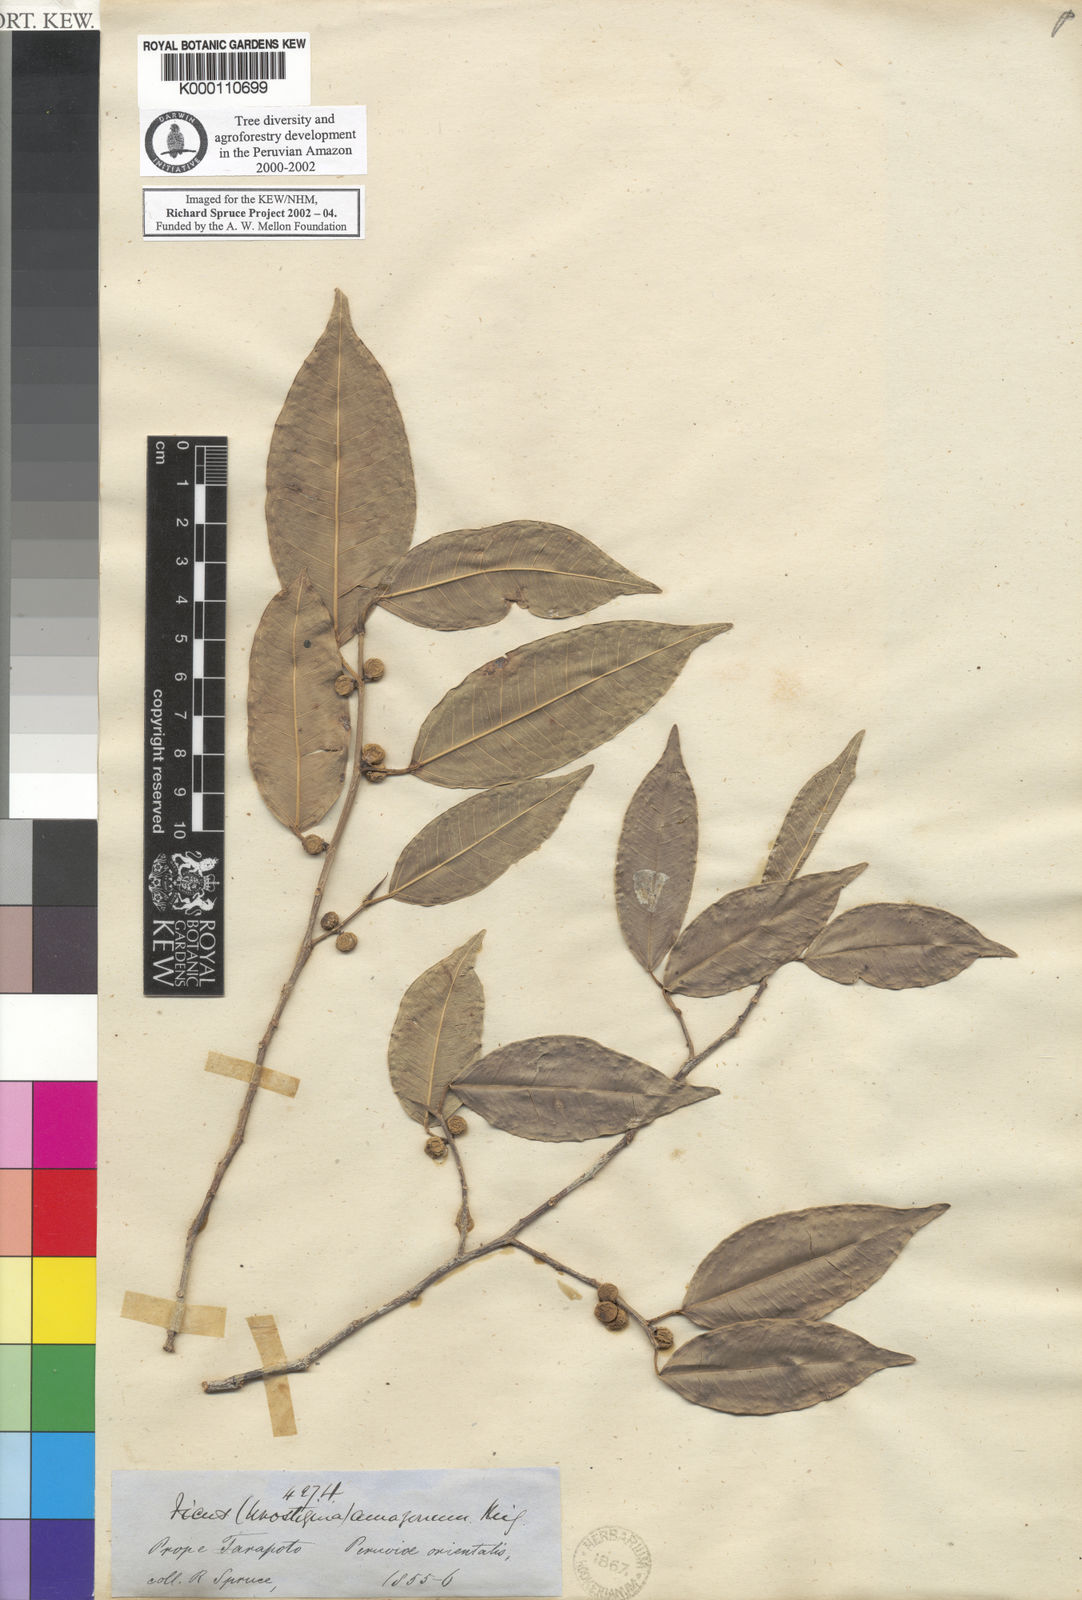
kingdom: Plantae
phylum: Tracheophyta
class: Magnoliopsida
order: Rosales
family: Moraceae
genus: Ficus
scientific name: Ficus amazonica
